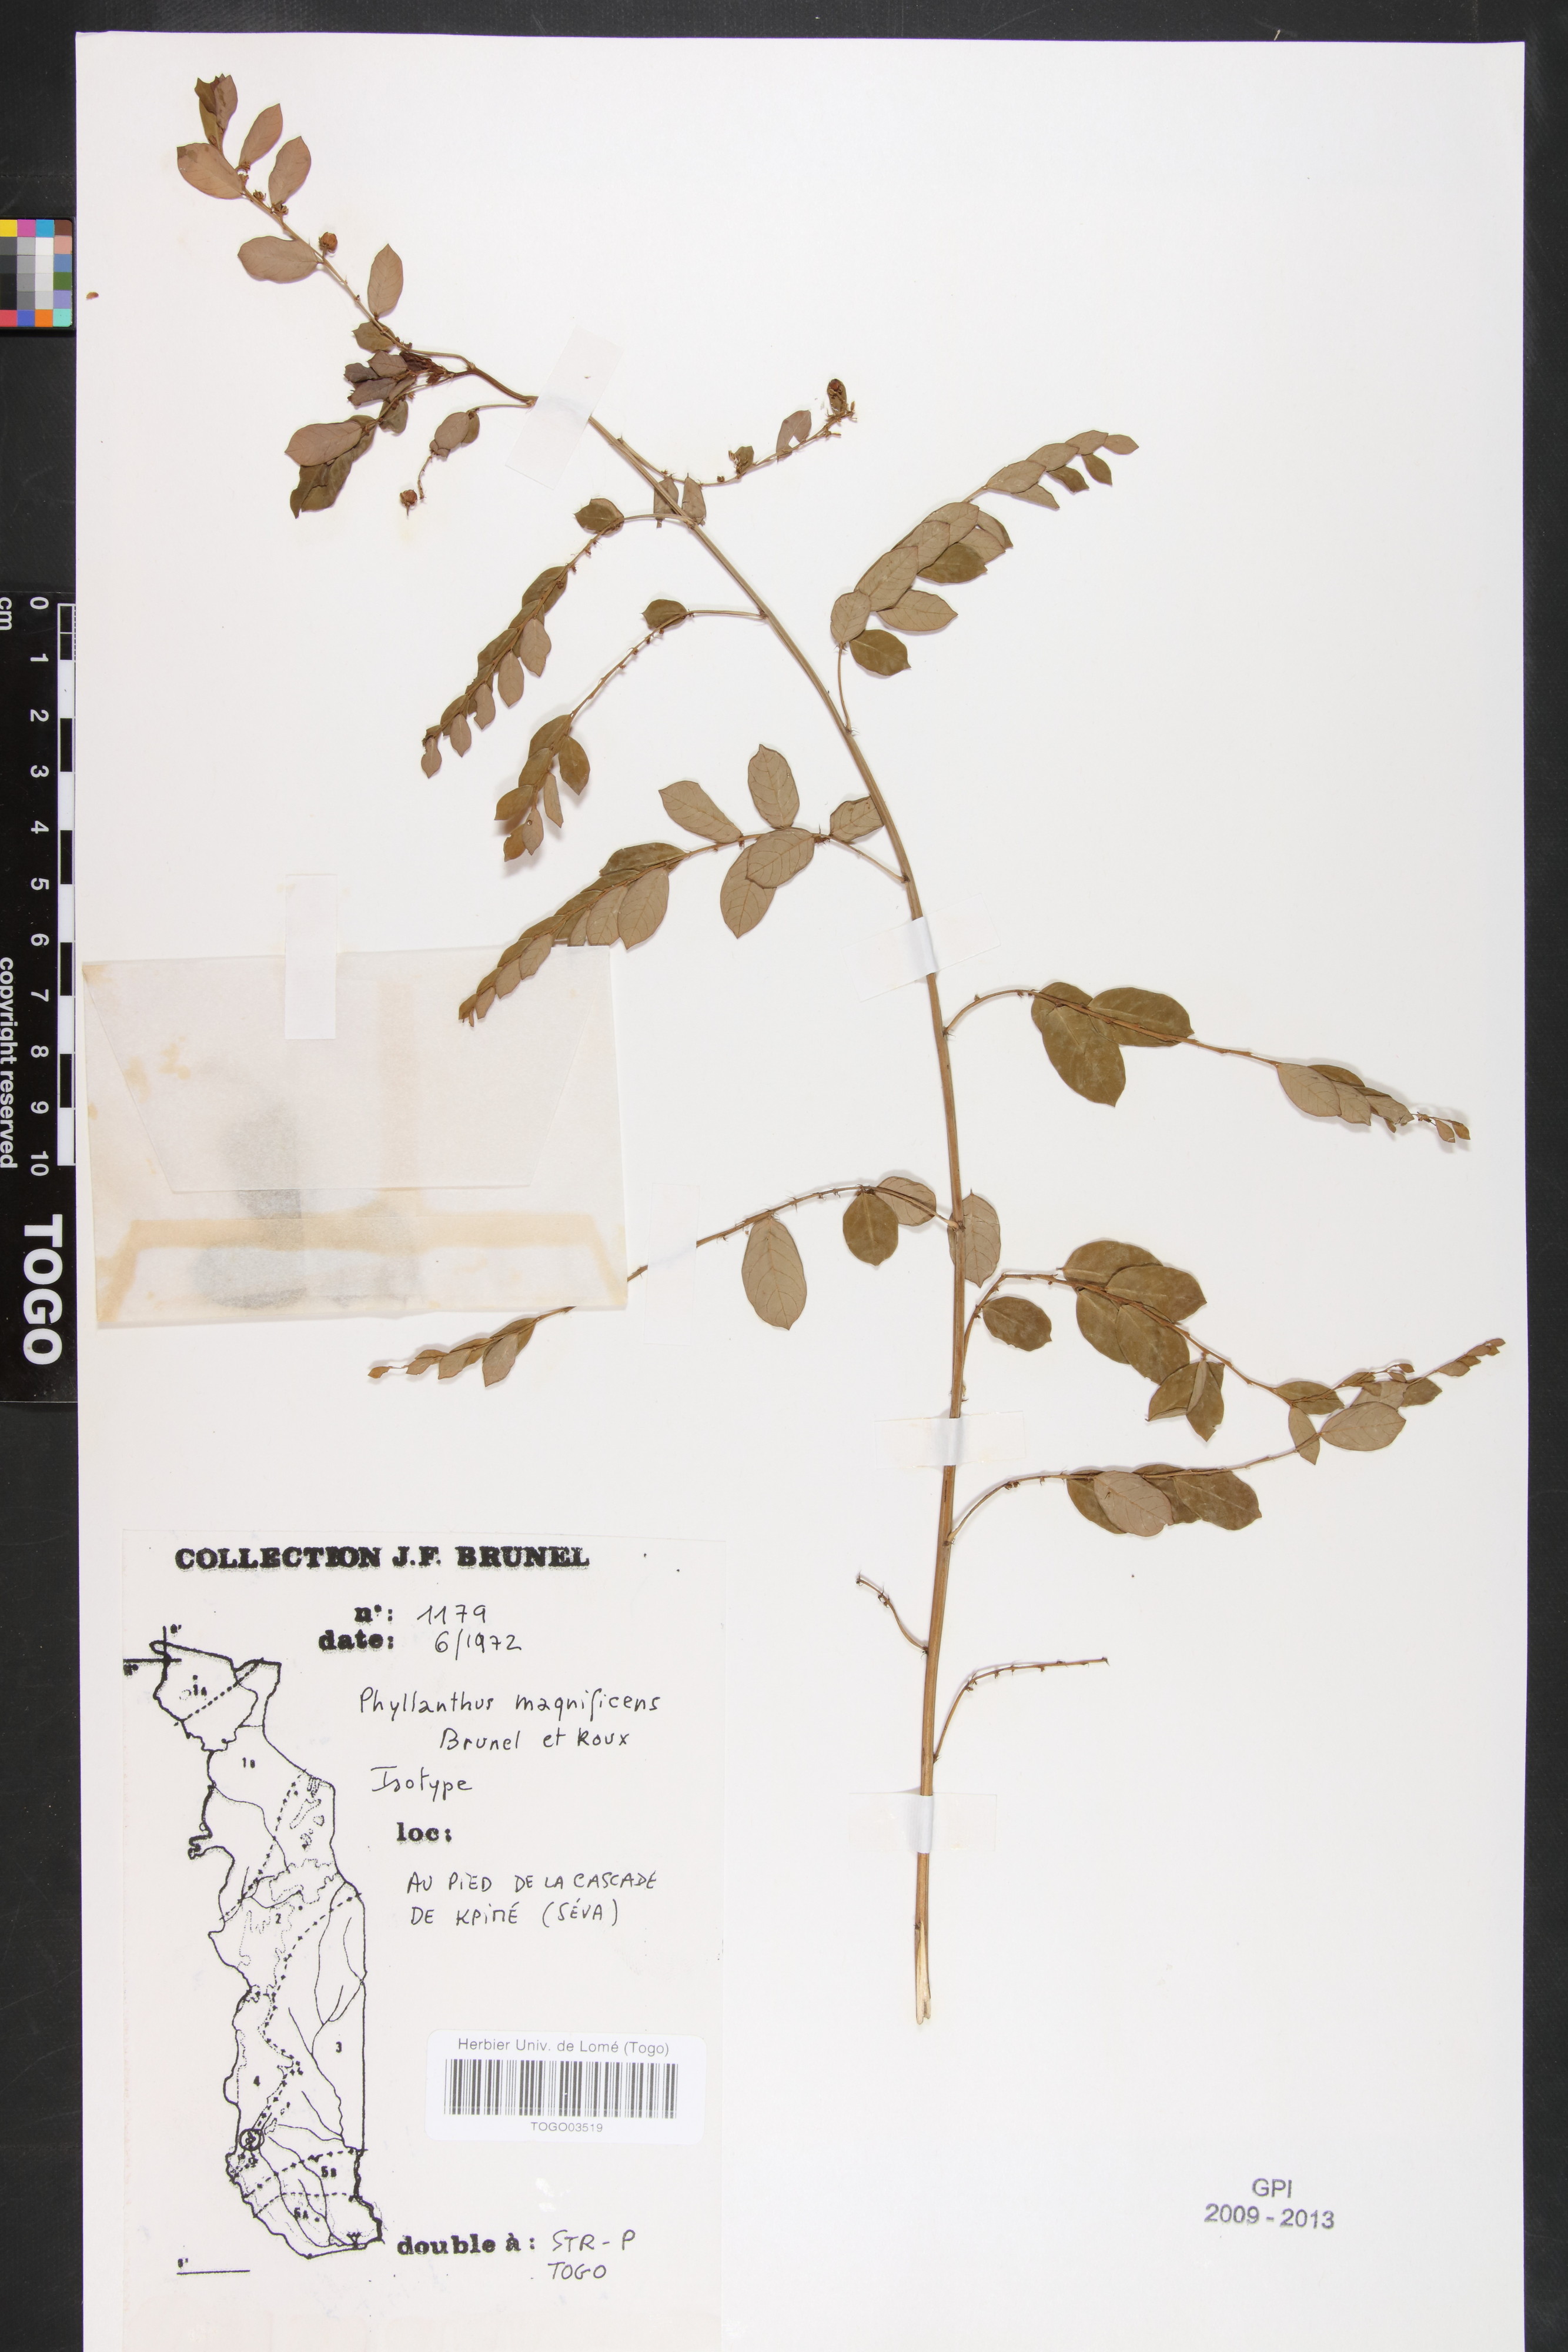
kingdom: Plantae
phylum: Tracheophyta
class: Magnoliopsida
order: Malpighiales
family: Phyllanthaceae
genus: Phyllanthus
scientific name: Phyllanthus magnificens
